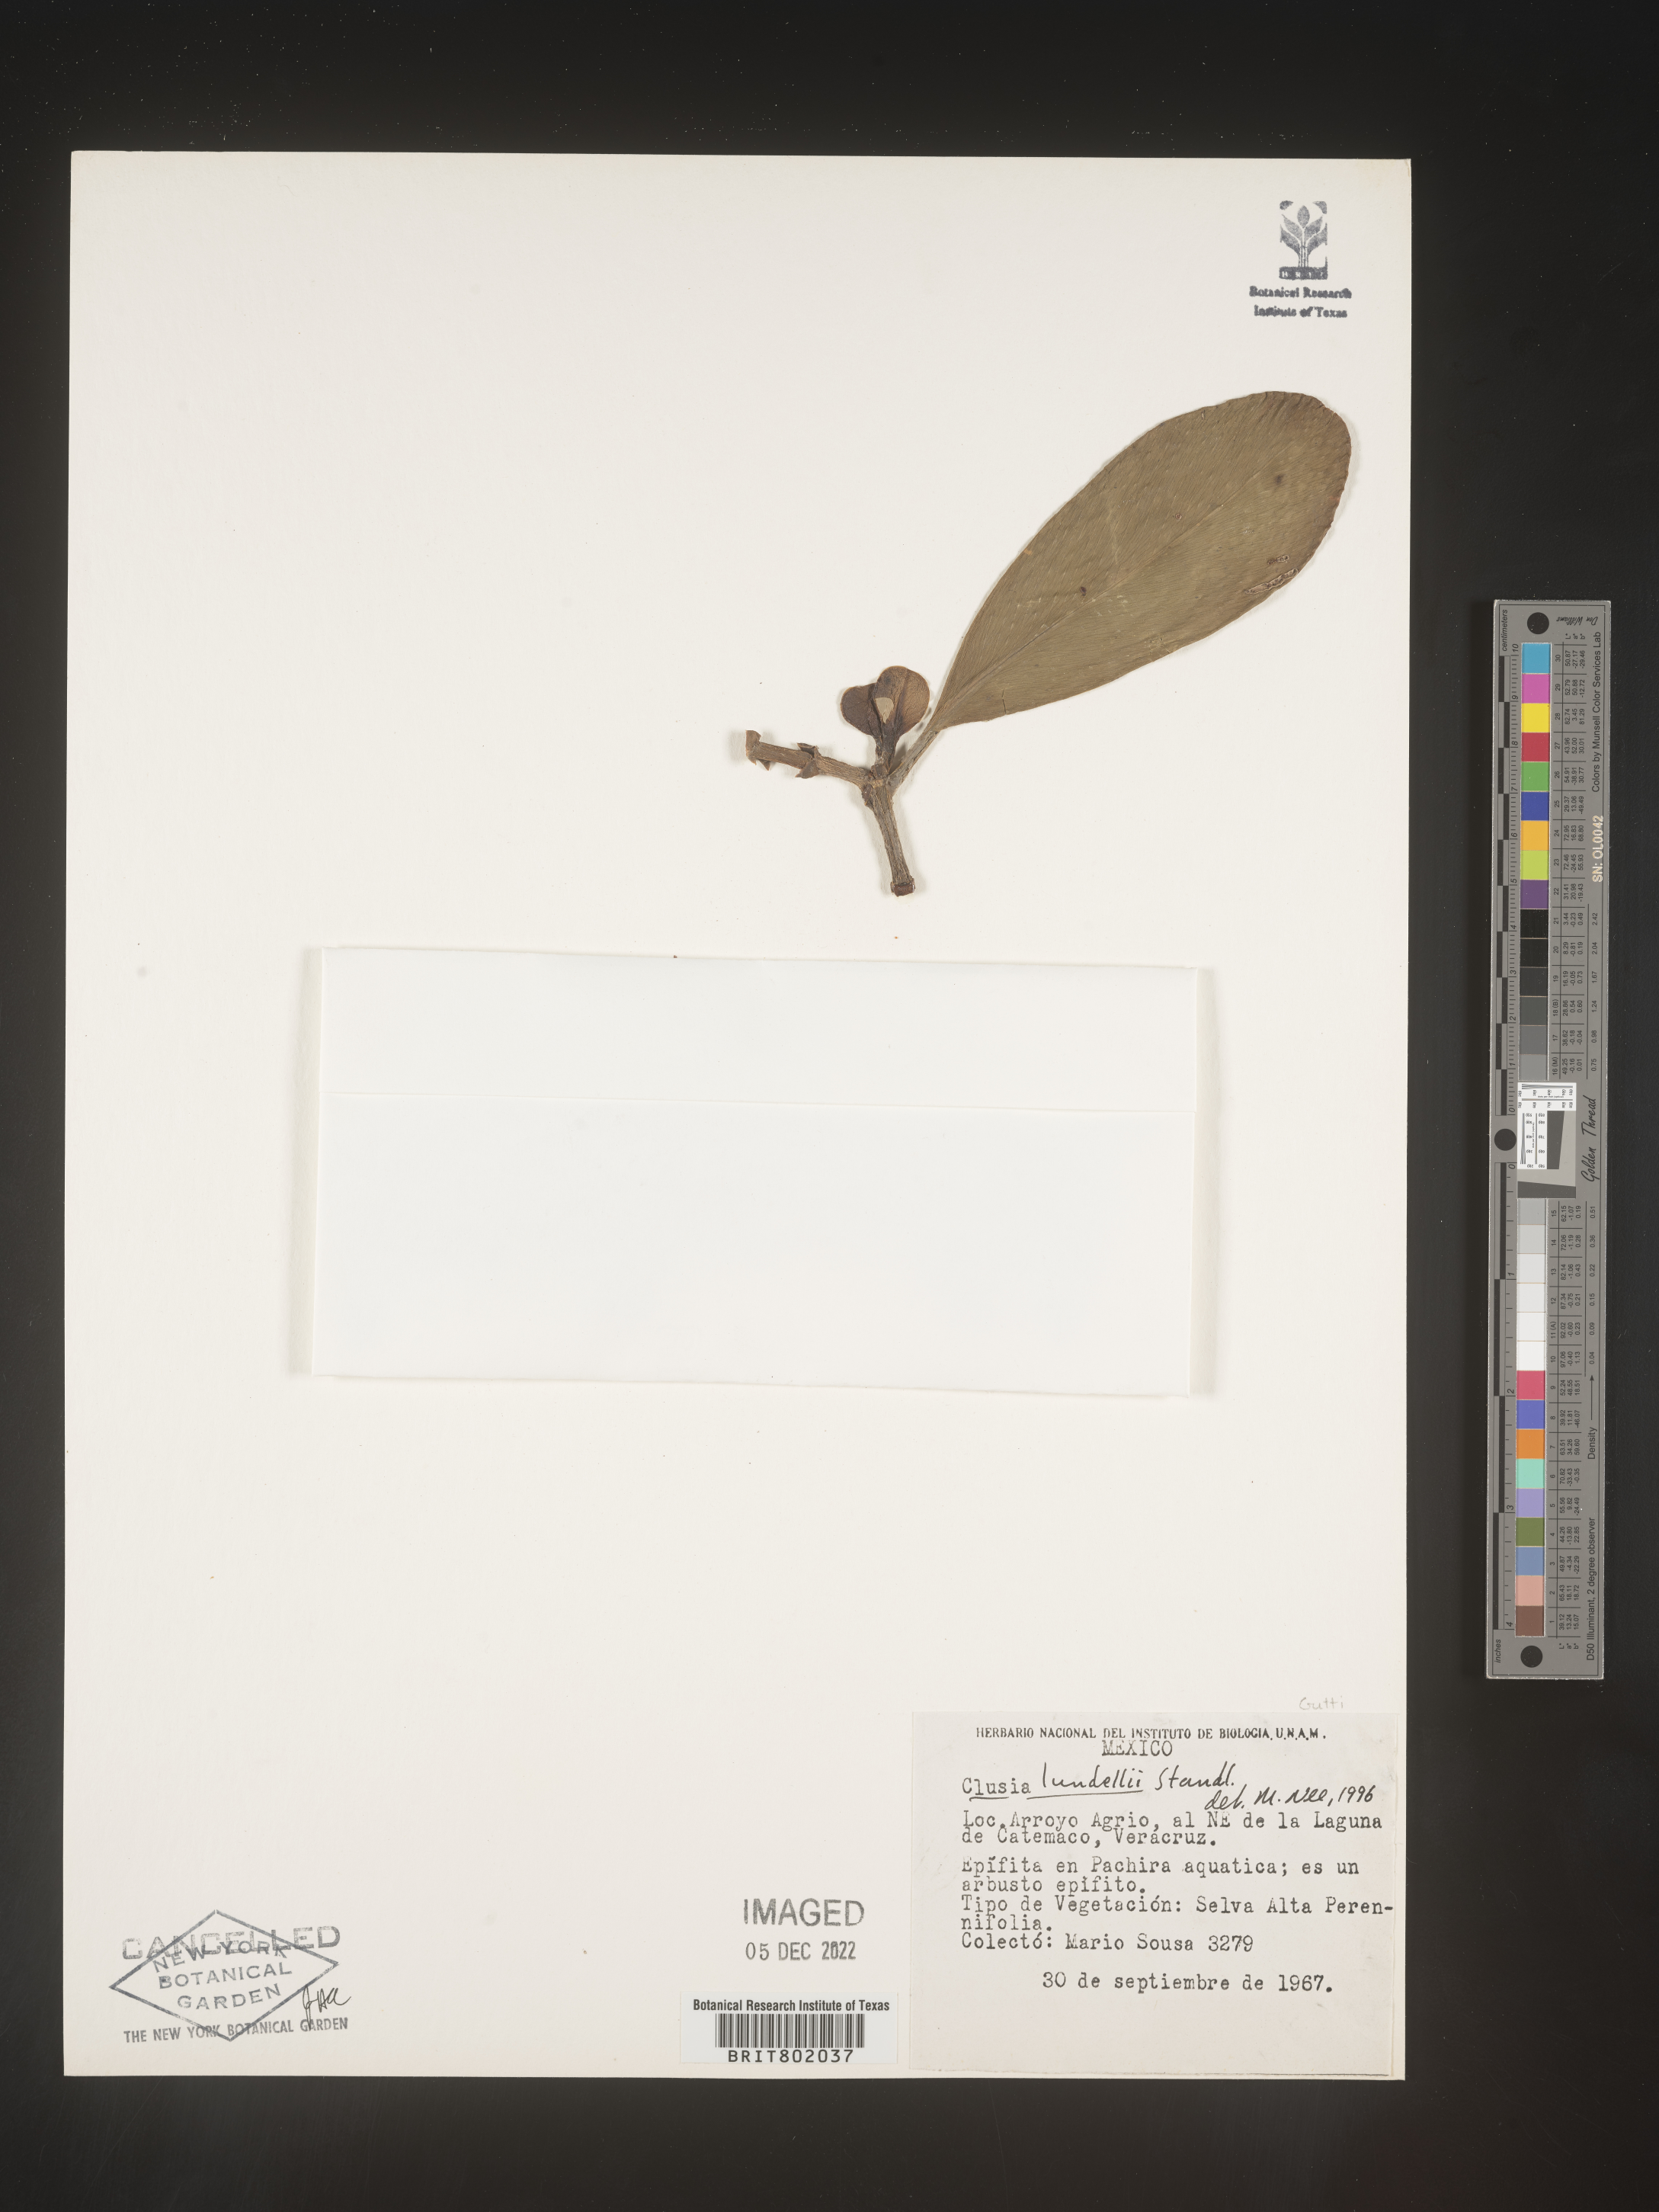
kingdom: Plantae
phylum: Tracheophyta
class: Magnoliopsida
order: Malpighiales
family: Clusiaceae
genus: Clusia
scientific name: Clusia
